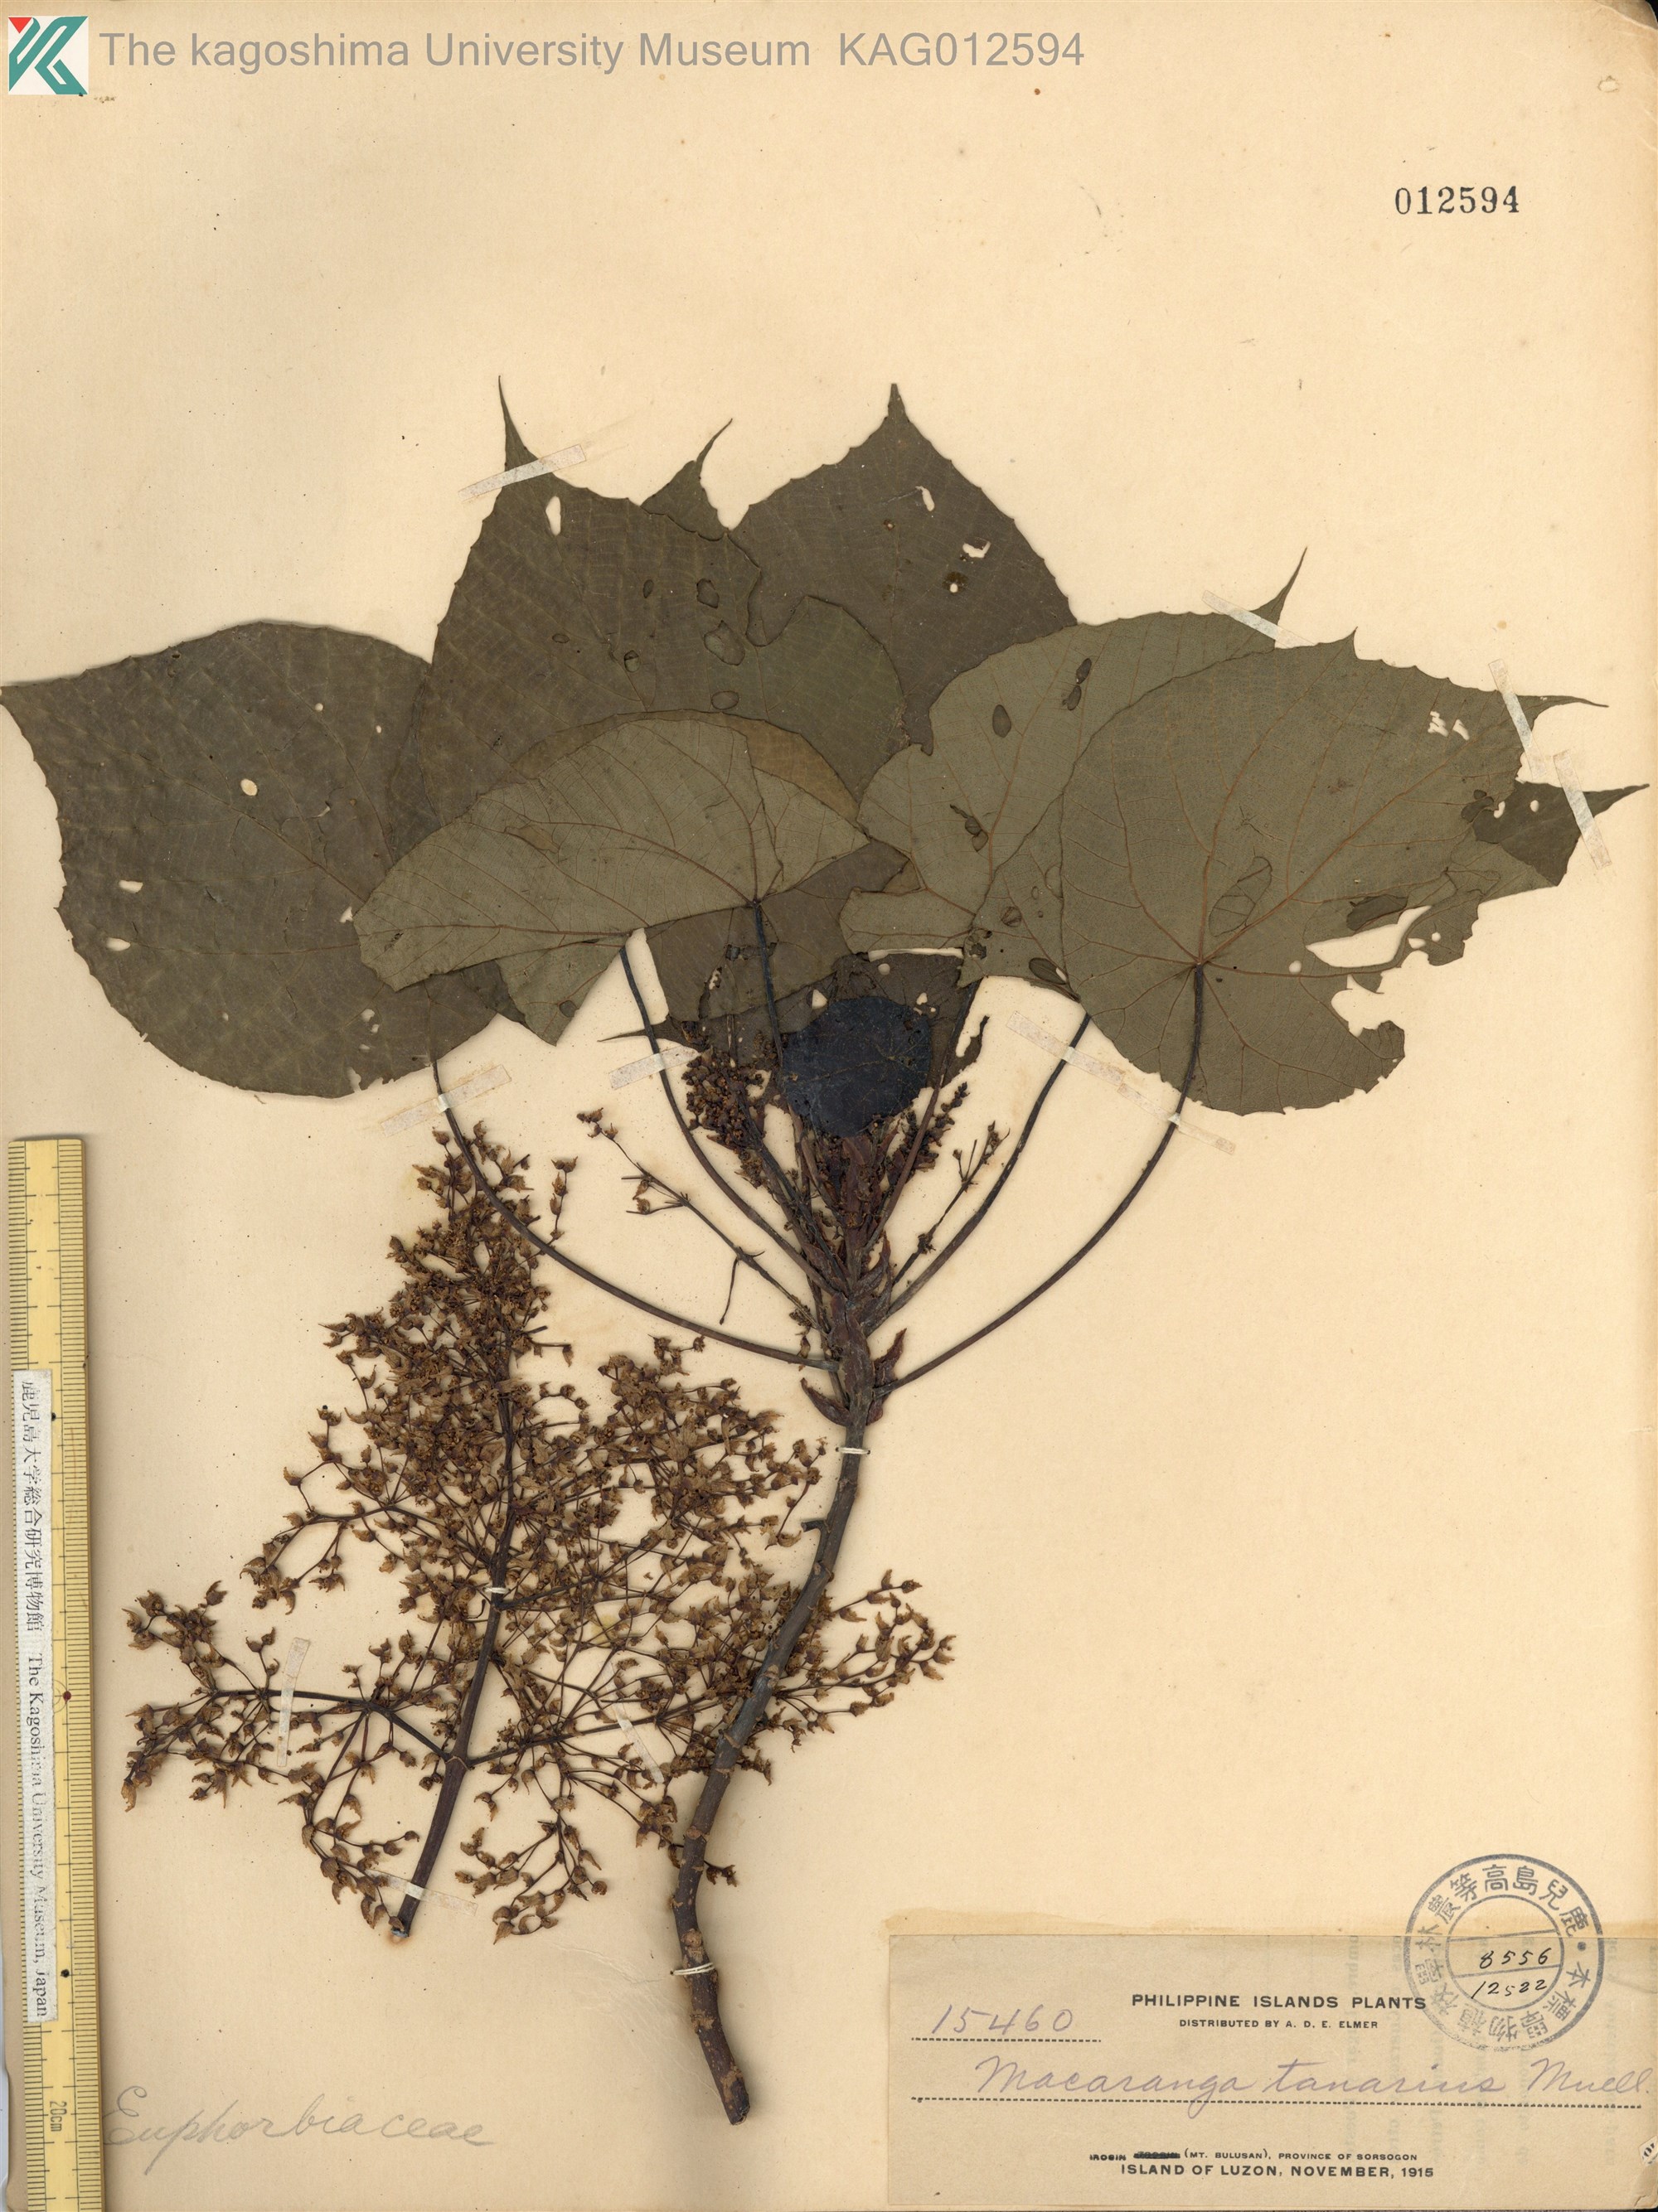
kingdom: Plantae
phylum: Tracheophyta
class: Magnoliopsida
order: Malpighiales
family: Euphorbiaceae
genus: Macaranga
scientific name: Macaranga tanarius
